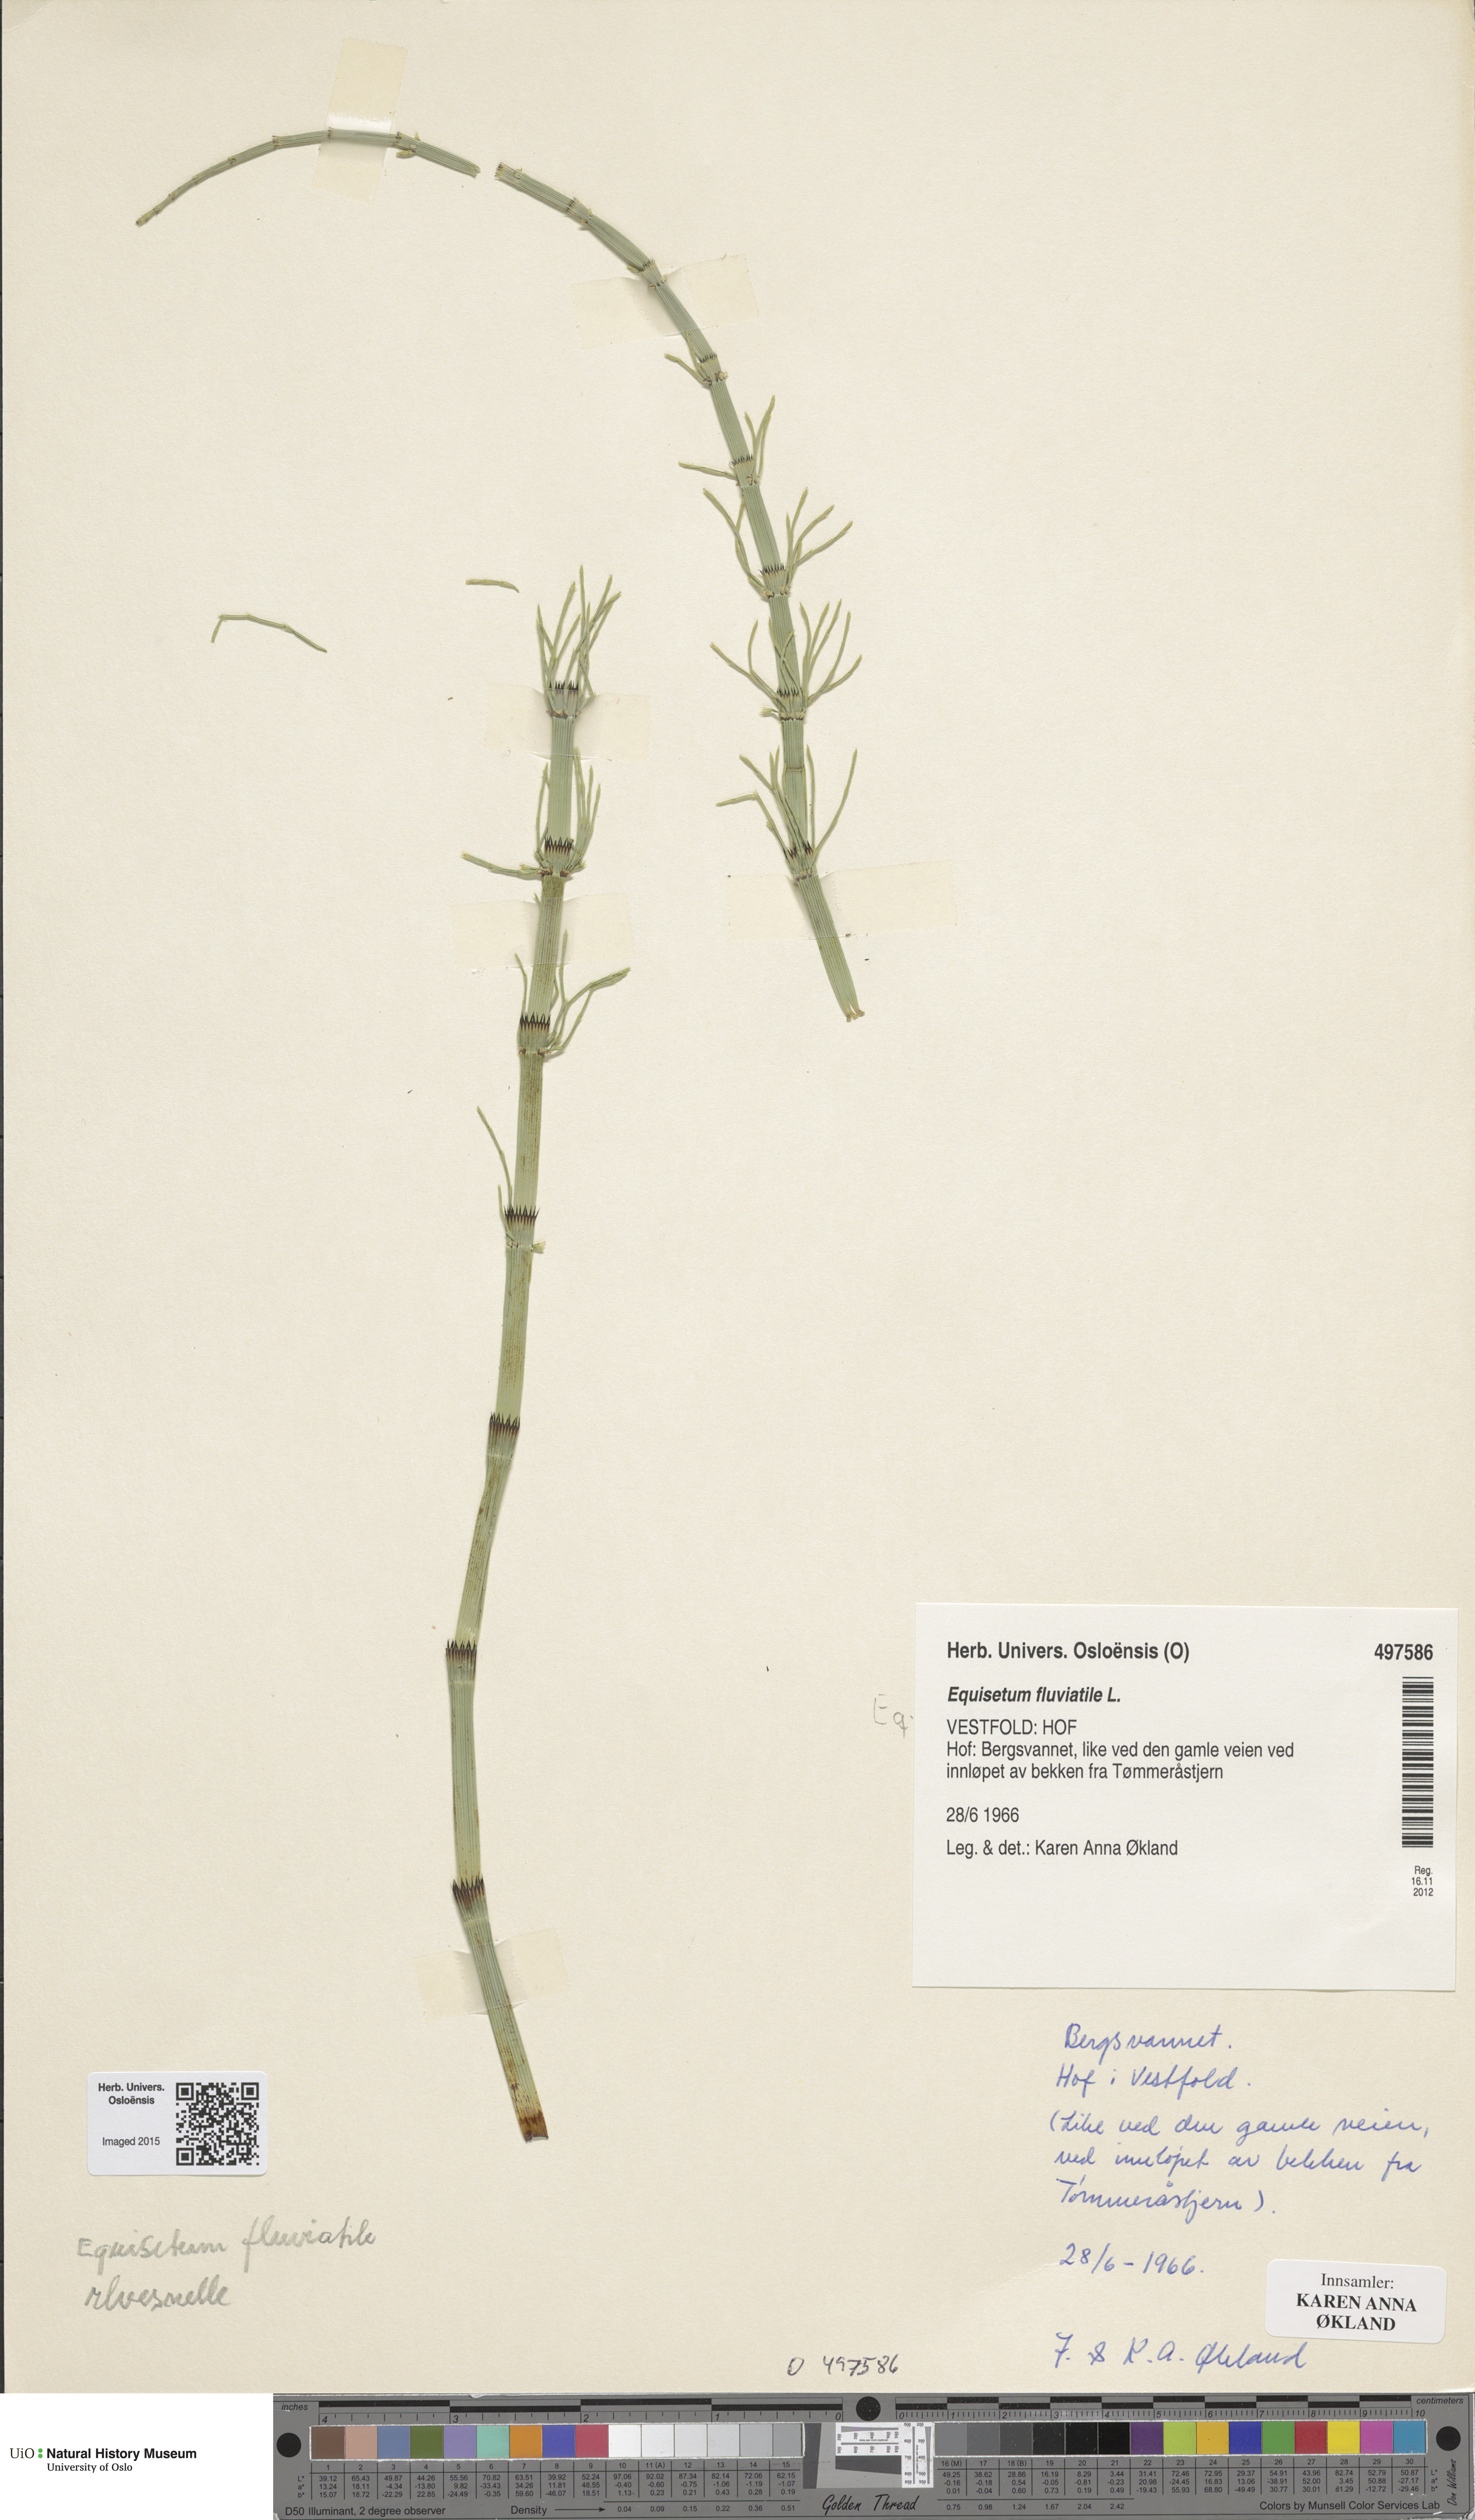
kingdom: Plantae
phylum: Tracheophyta
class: Polypodiopsida
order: Equisetales
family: Equisetaceae
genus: Equisetum
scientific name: Equisetum fluviatile
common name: Water horsetail
